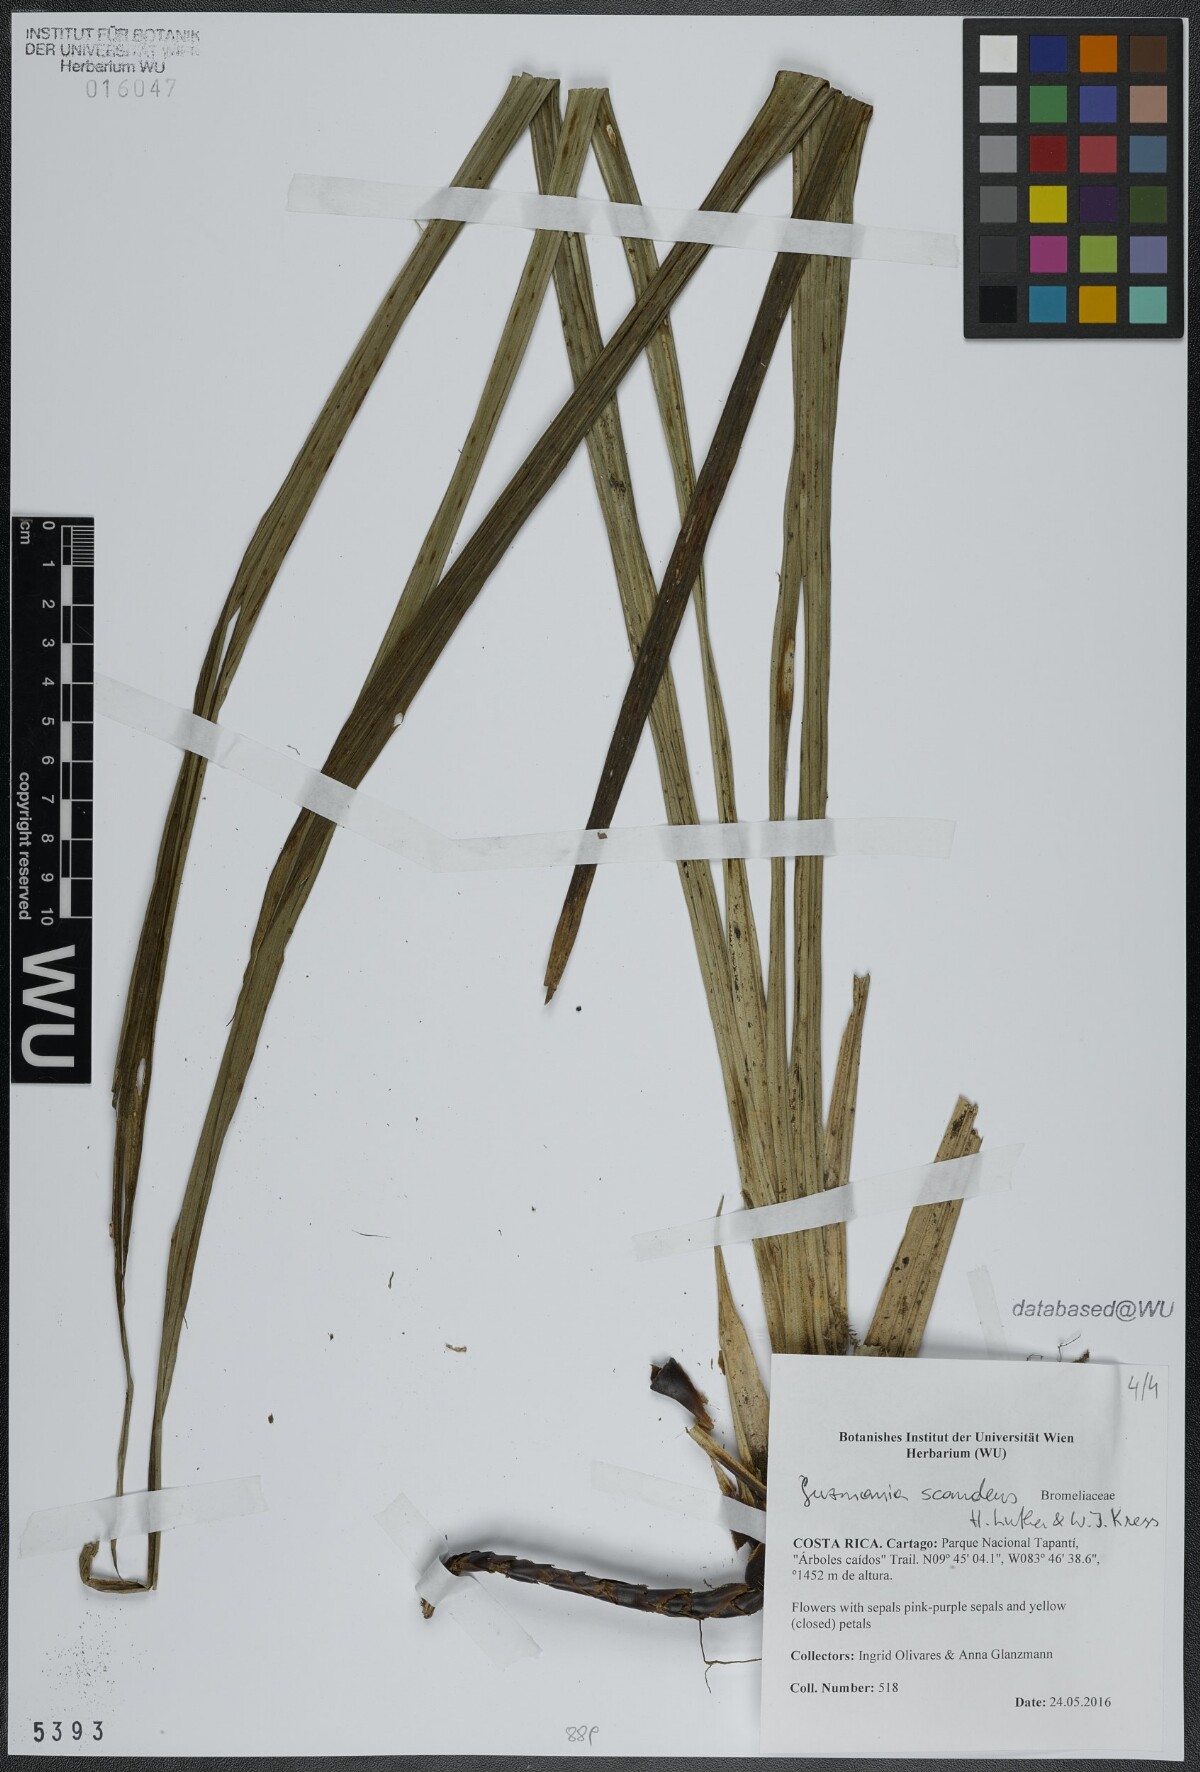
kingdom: Plantae
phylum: Tracheophyta
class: Liliopsida
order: Poales
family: Bromeliaceae
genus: Guzmania
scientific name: Guzmania scandens
